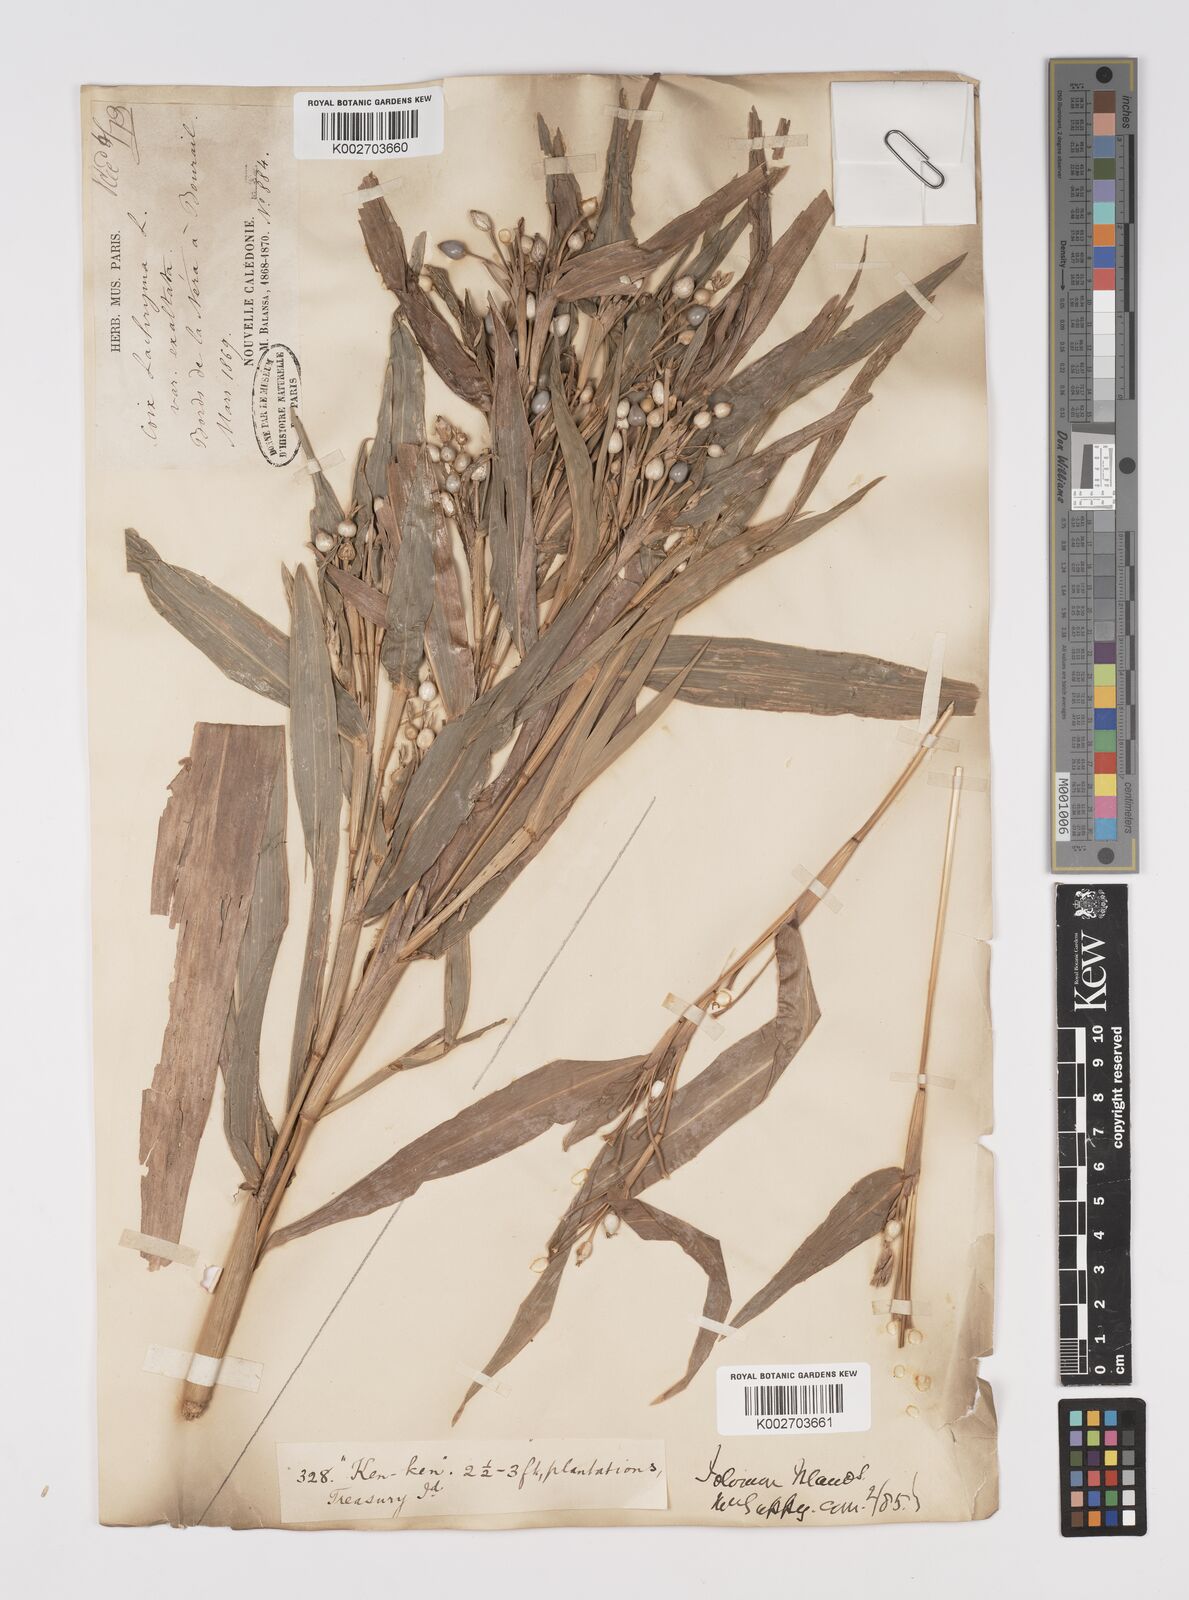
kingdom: Plantae
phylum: Tracheophyta
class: Liliopsida
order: Poales
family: Poaceae
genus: Coix
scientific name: Coix lacryma-jobi
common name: Job's tears
